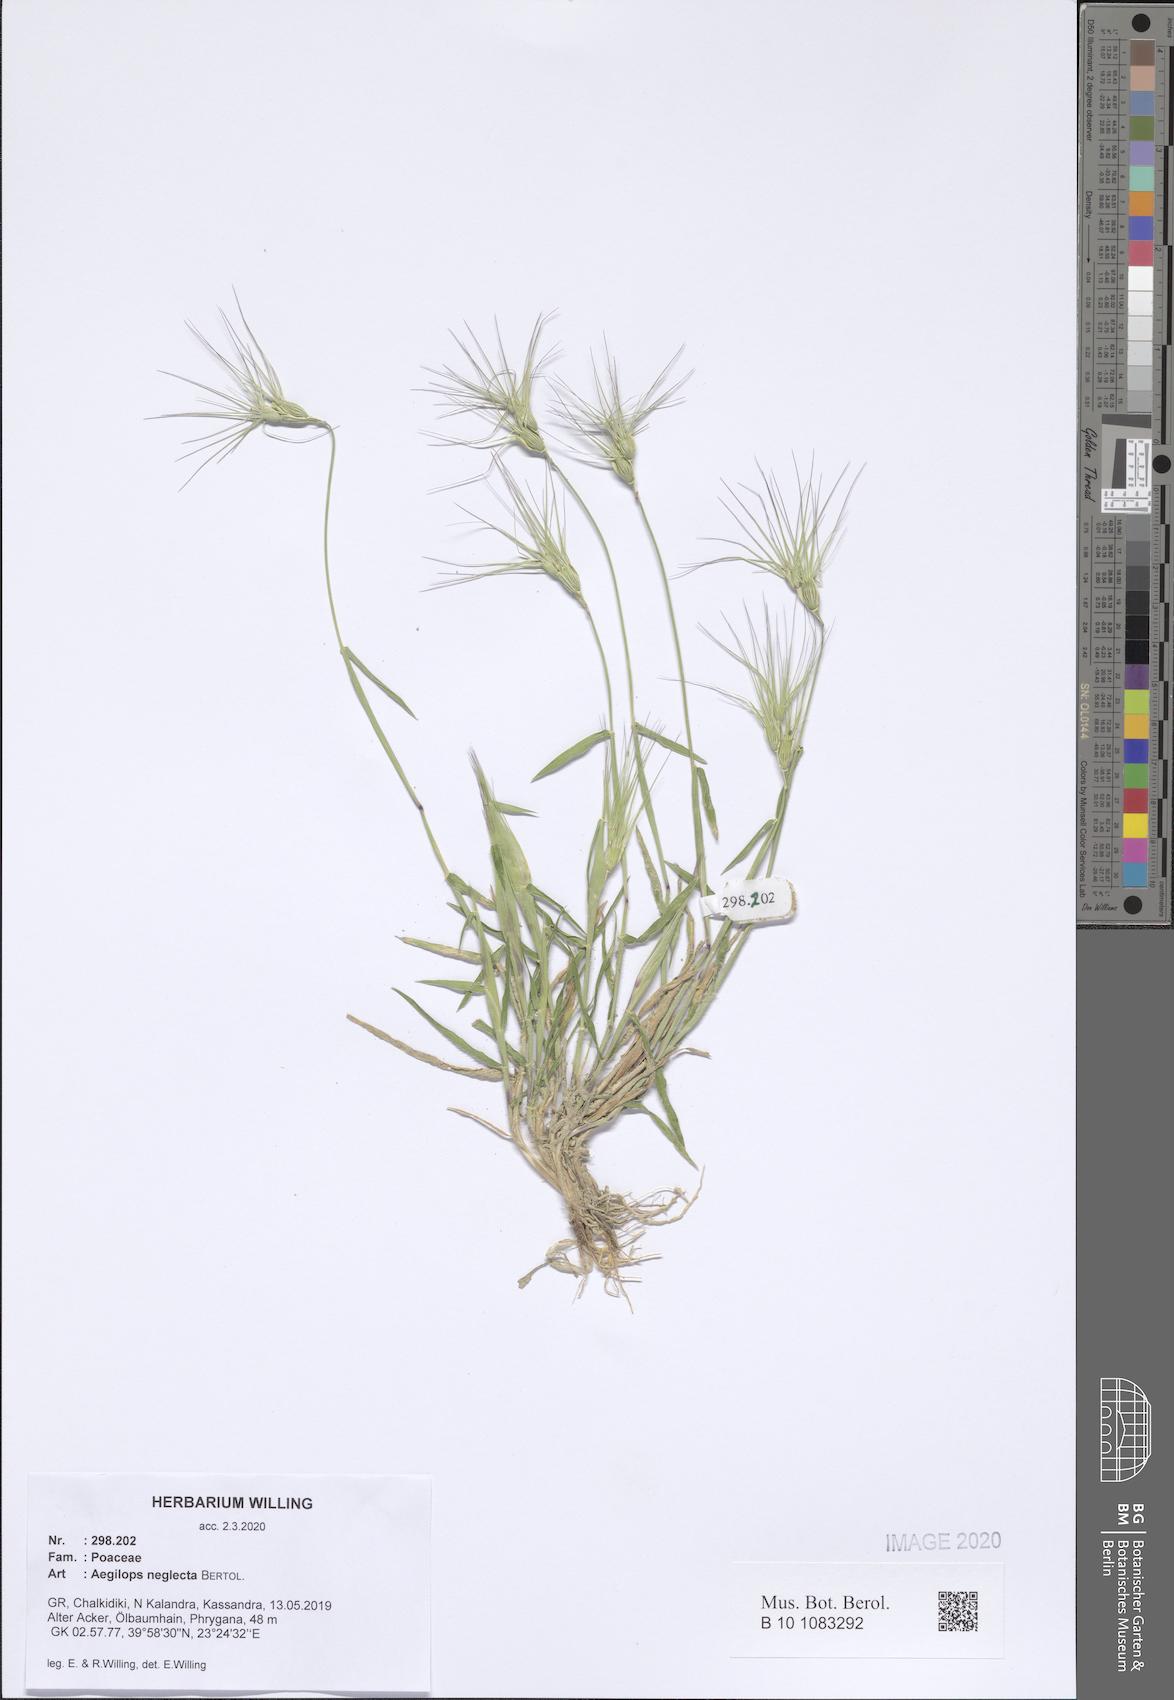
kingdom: Plantae
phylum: Tracheophyta
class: Liliopsida
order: Poales
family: Poaceae
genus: Aegilops
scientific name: Aegilops neglecta
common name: Three-awn goat grass
